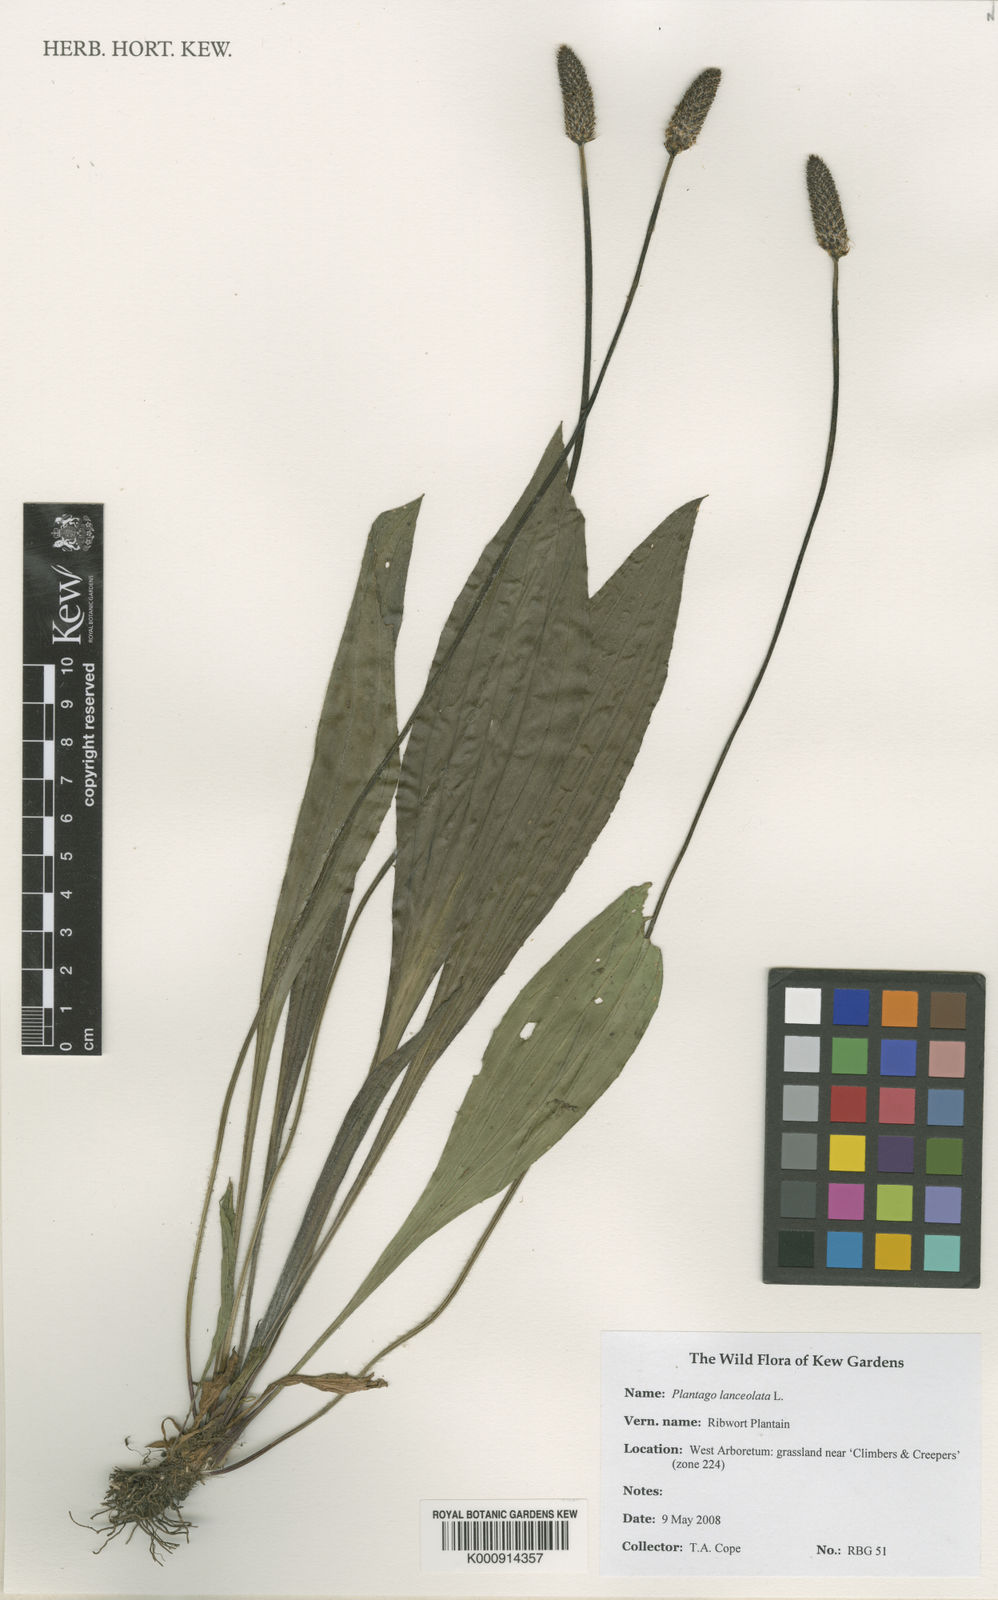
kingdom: Plantae
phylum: Tracheophyta
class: Magnoliopsida
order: Lamiales
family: Plantaginaceae
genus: Plantago
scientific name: Plantago lanceolata
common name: Ribwort plantain
